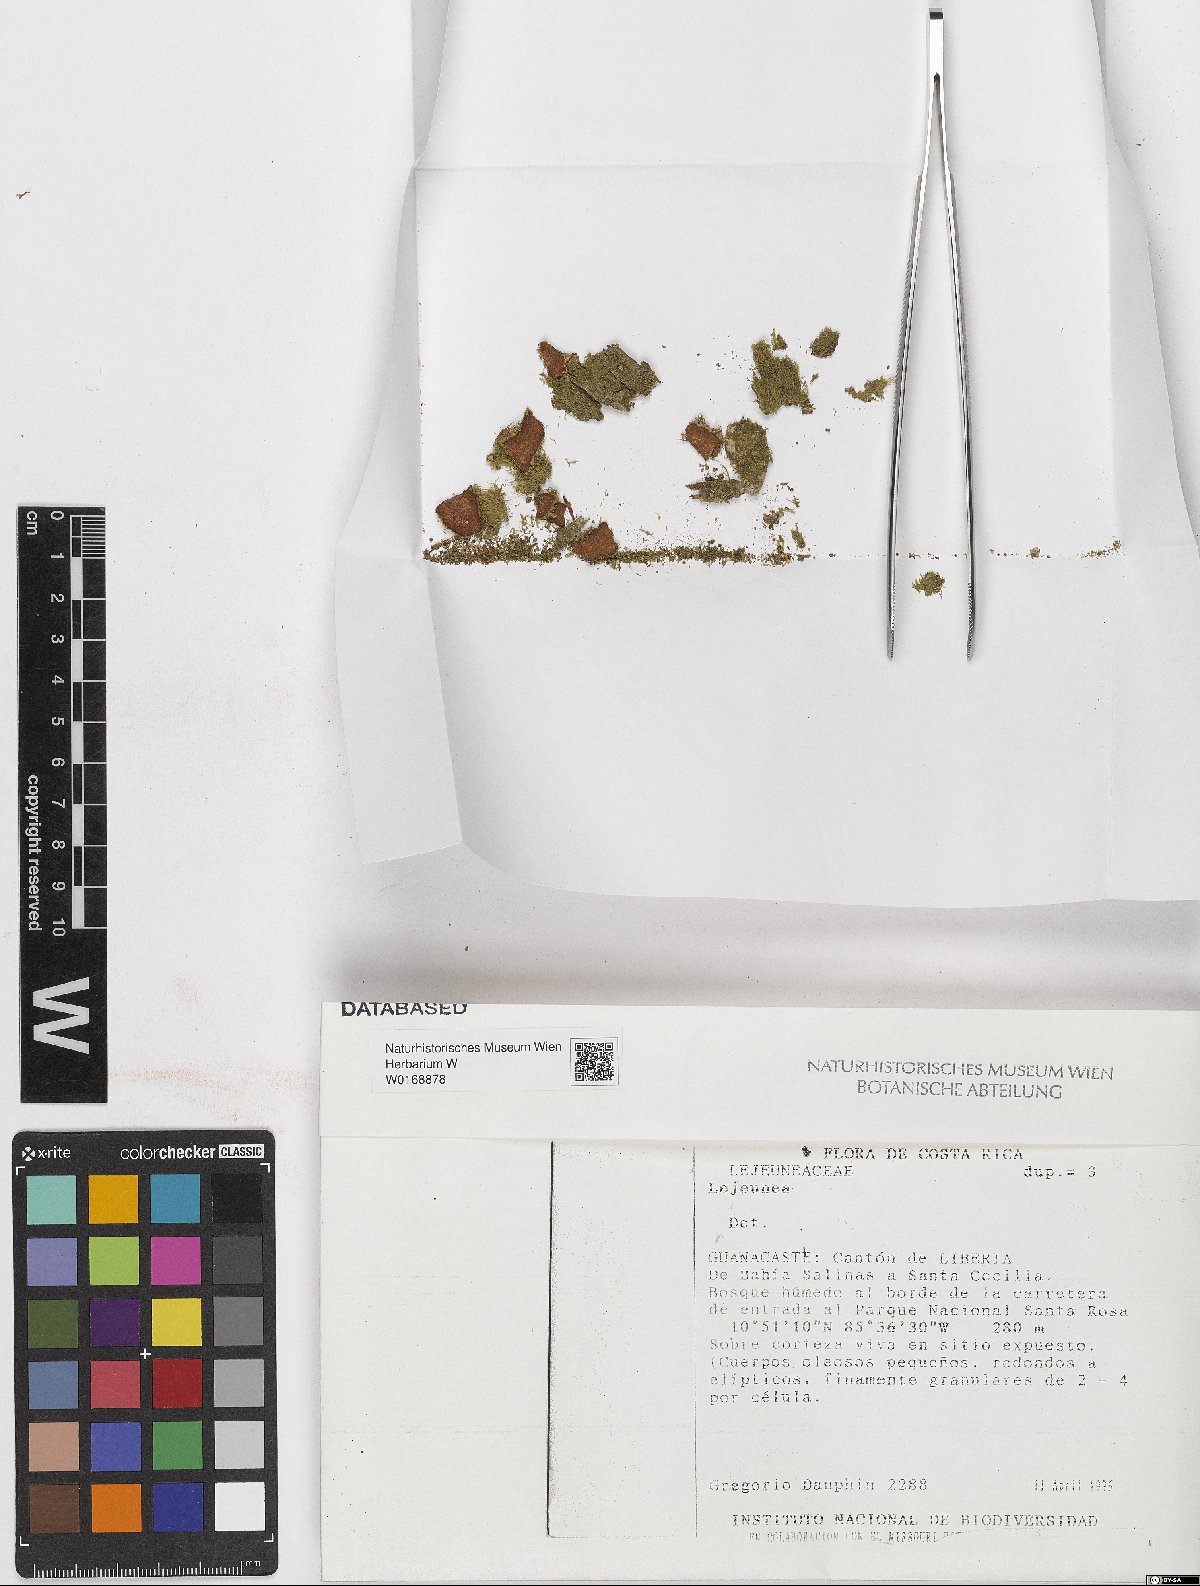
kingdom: Plantae
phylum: Marchantiophyta
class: Jungermanniopsida
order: Porellales
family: Lejeuneaceae
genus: Lejeunea
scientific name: Lejeunea
